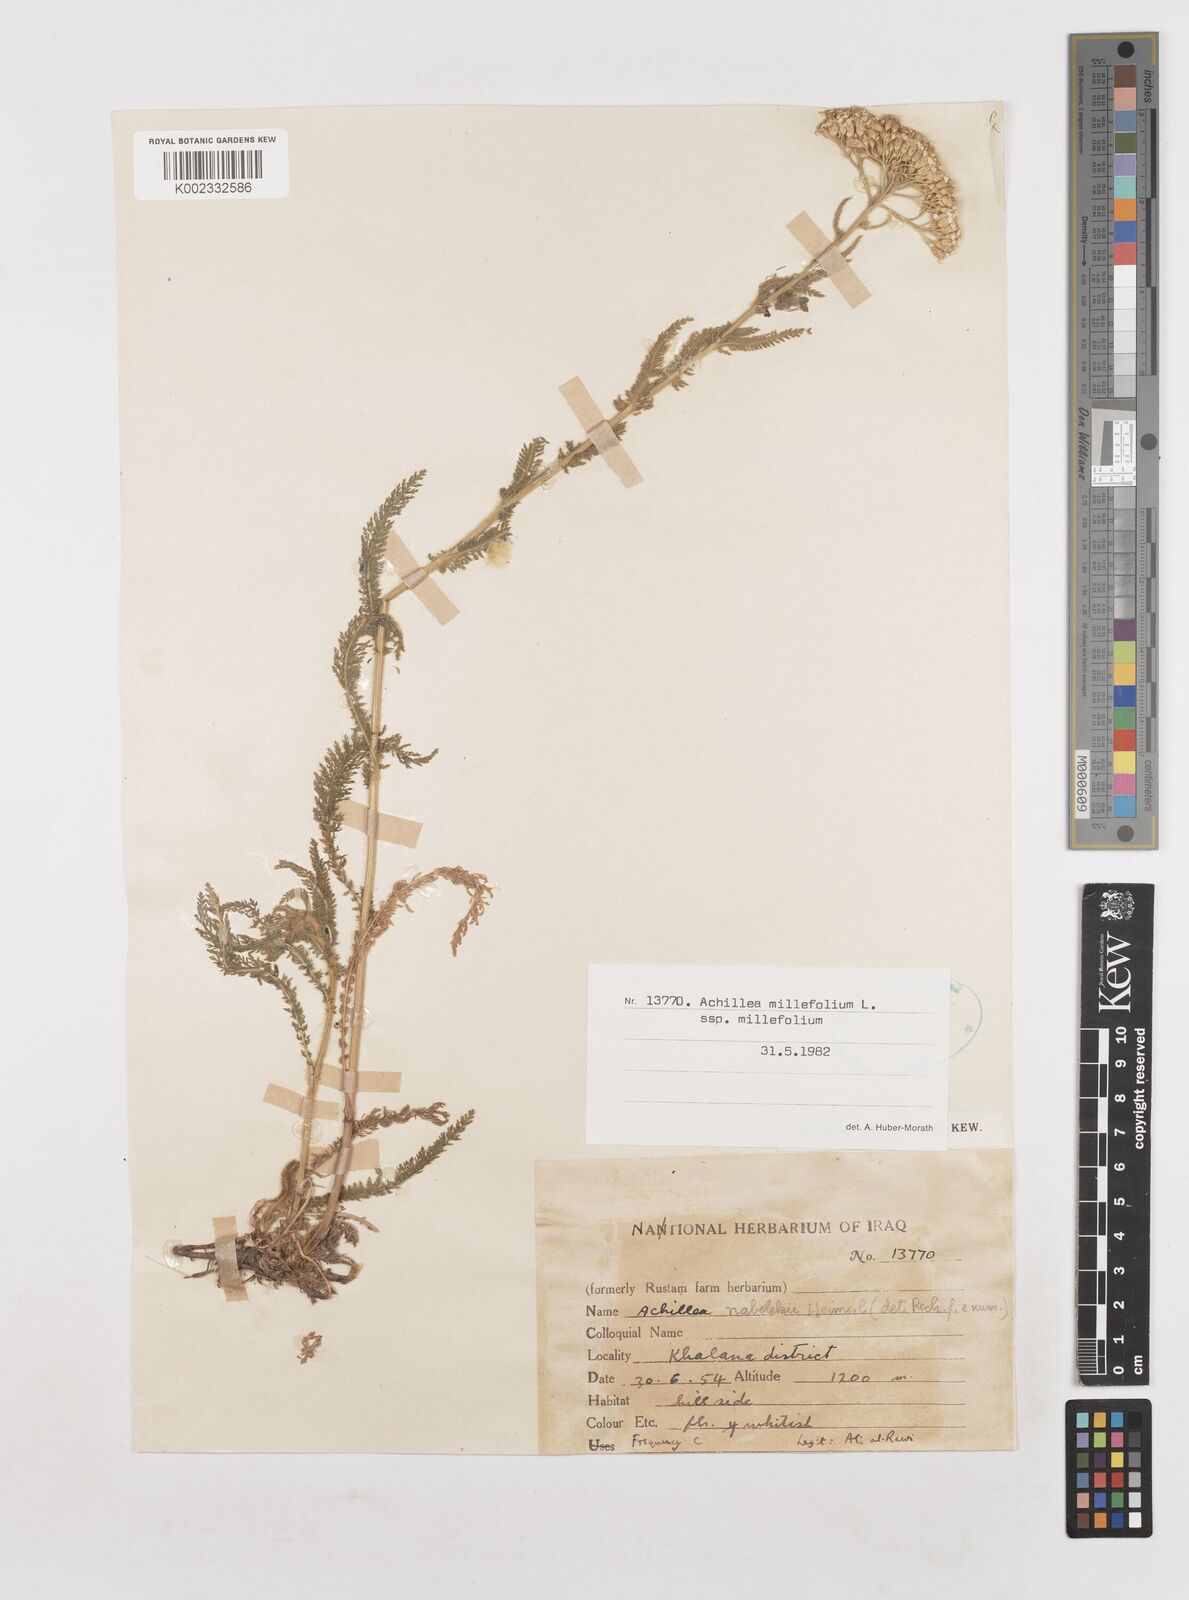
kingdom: Plantae
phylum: Tracheophyta
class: Magnoliopsida
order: Asterales
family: Asteraceae
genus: Achillea
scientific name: Achillea millefolium
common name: Yarrow
